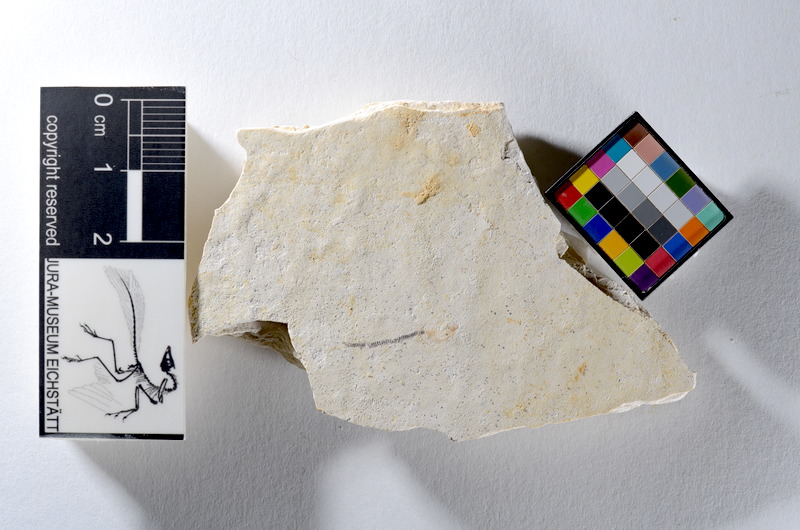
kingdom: Animalia
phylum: Chordata
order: Salmoniformes
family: Orthogonikleithridae
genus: Orthogonikleithrus
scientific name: Orthogonikleithrus hoelli
